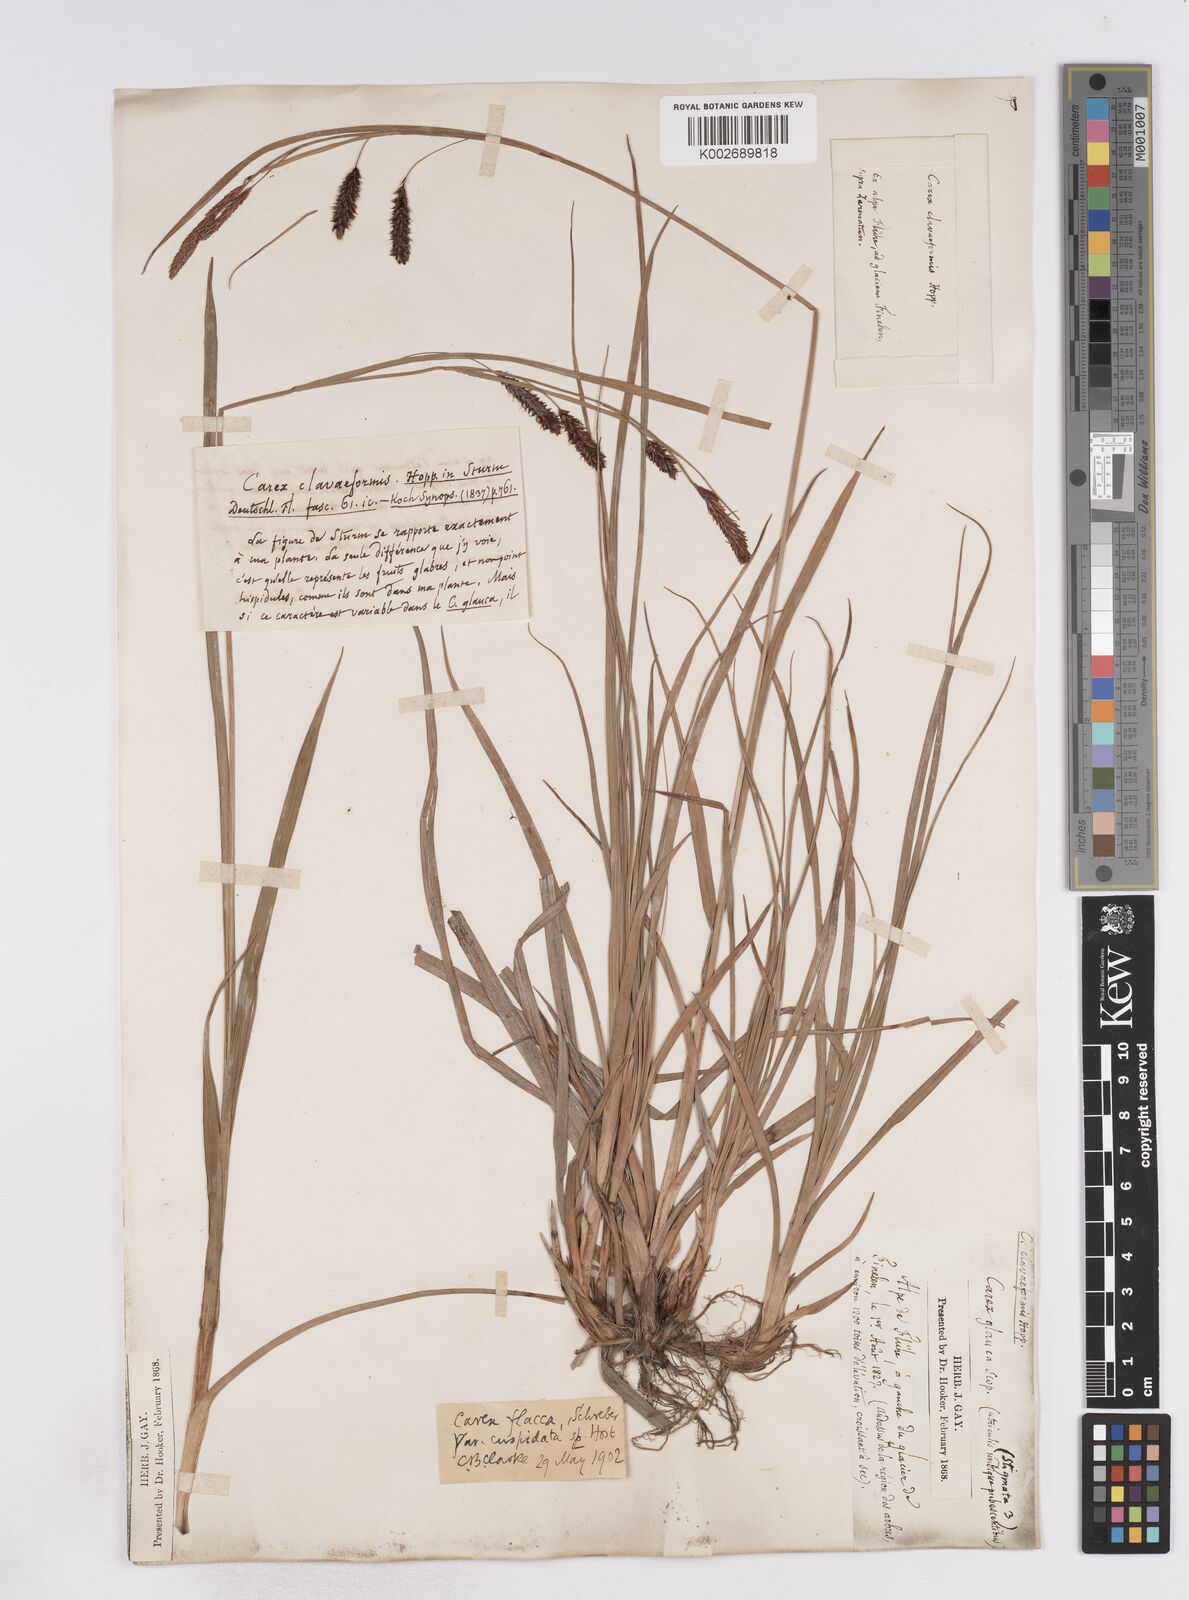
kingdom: Plantae
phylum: Tracheophyta
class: Liliopsida
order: Poales
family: Cyperaceae
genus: Carex
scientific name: Carex flacca
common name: Glaucous sedge
